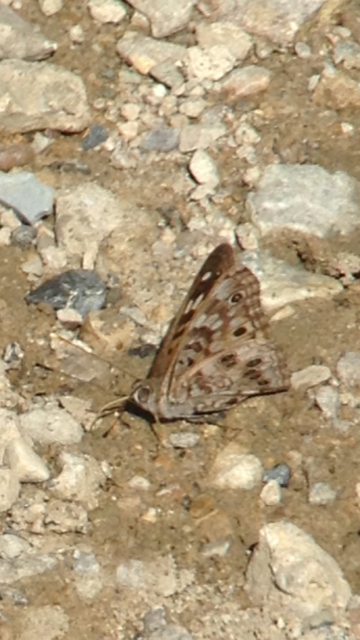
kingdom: Animalia
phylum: Arthropoda
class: Insecta
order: Lepidoptera
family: Nymphalidae
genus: Asterocampa
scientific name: Asterocampa celtis
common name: Hackberry Emperor
